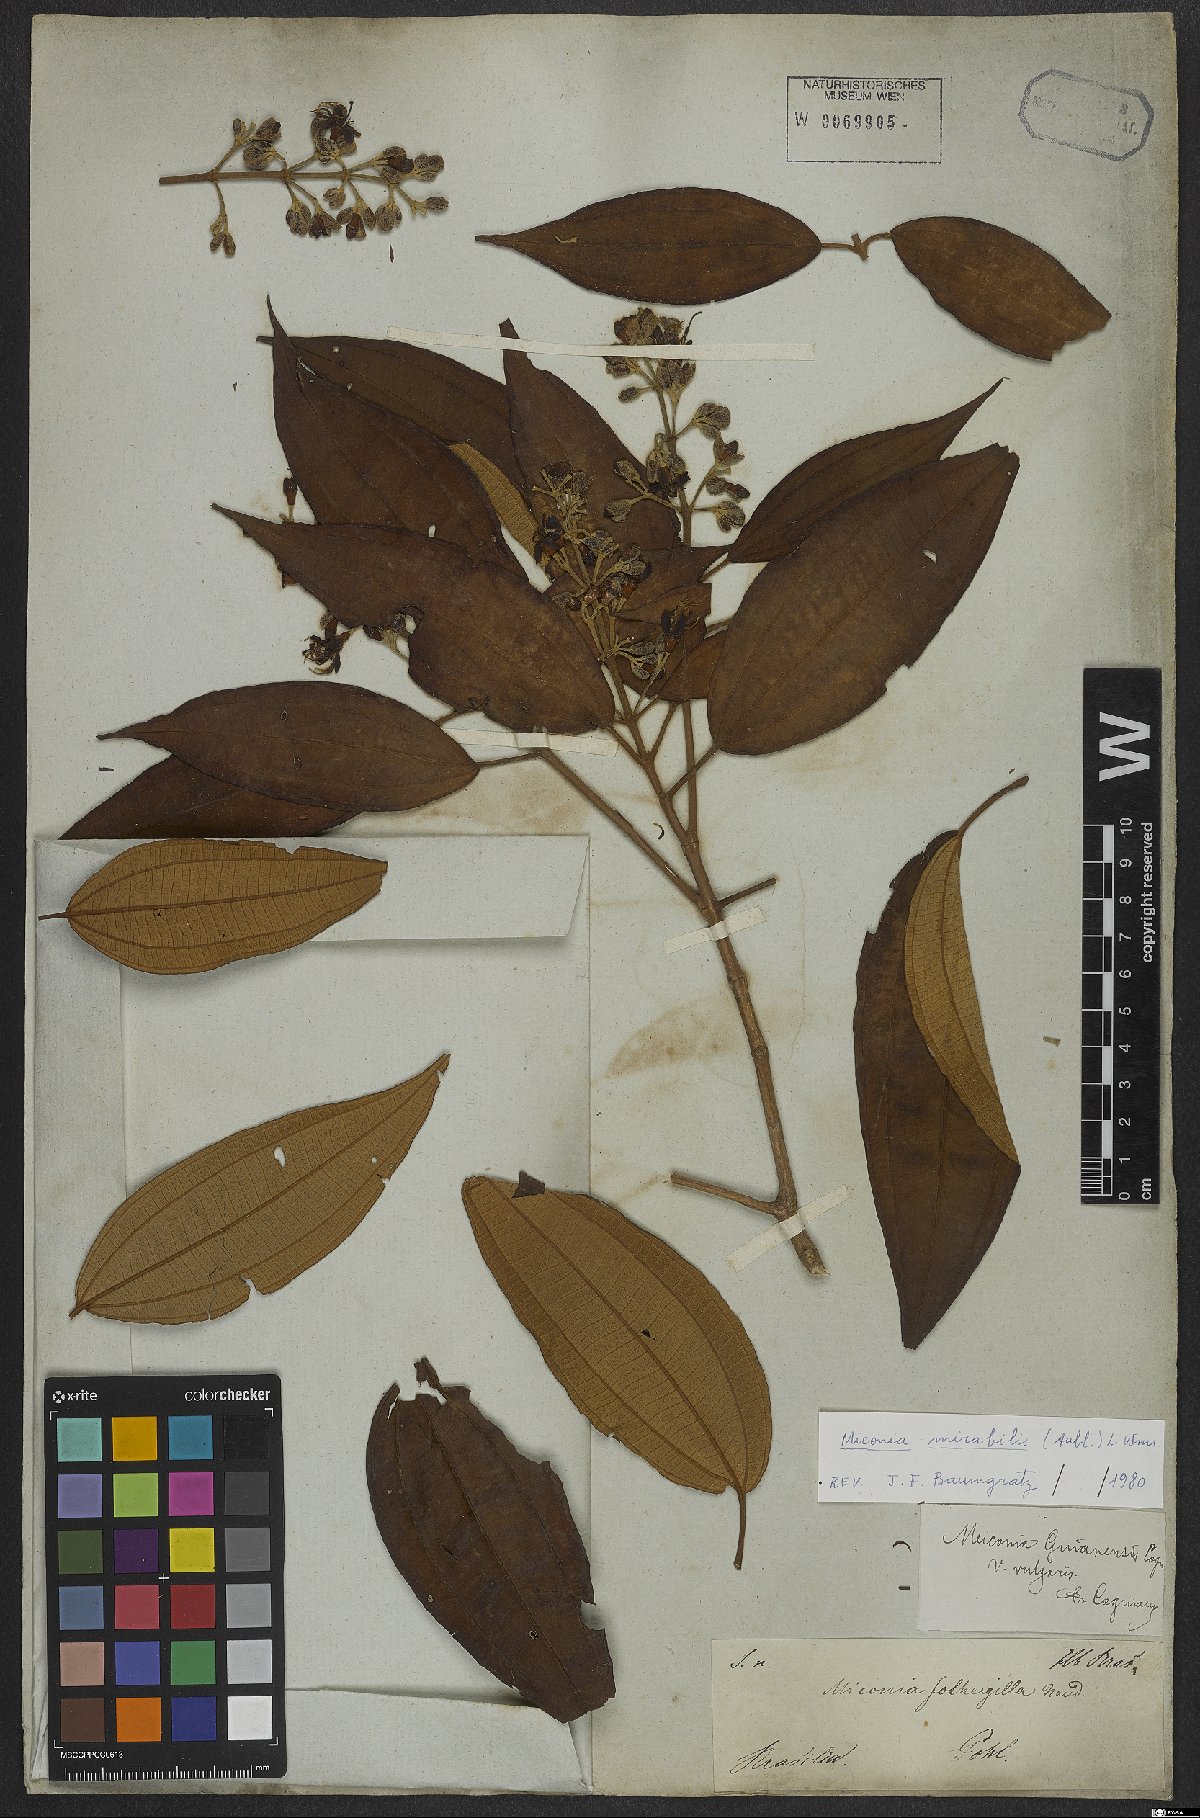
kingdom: Plantae
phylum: Tracheophyta
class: Magnoliopsida
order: Myrtales
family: Melastomataceae
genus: Miconia
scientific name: Miconia mirabilis
